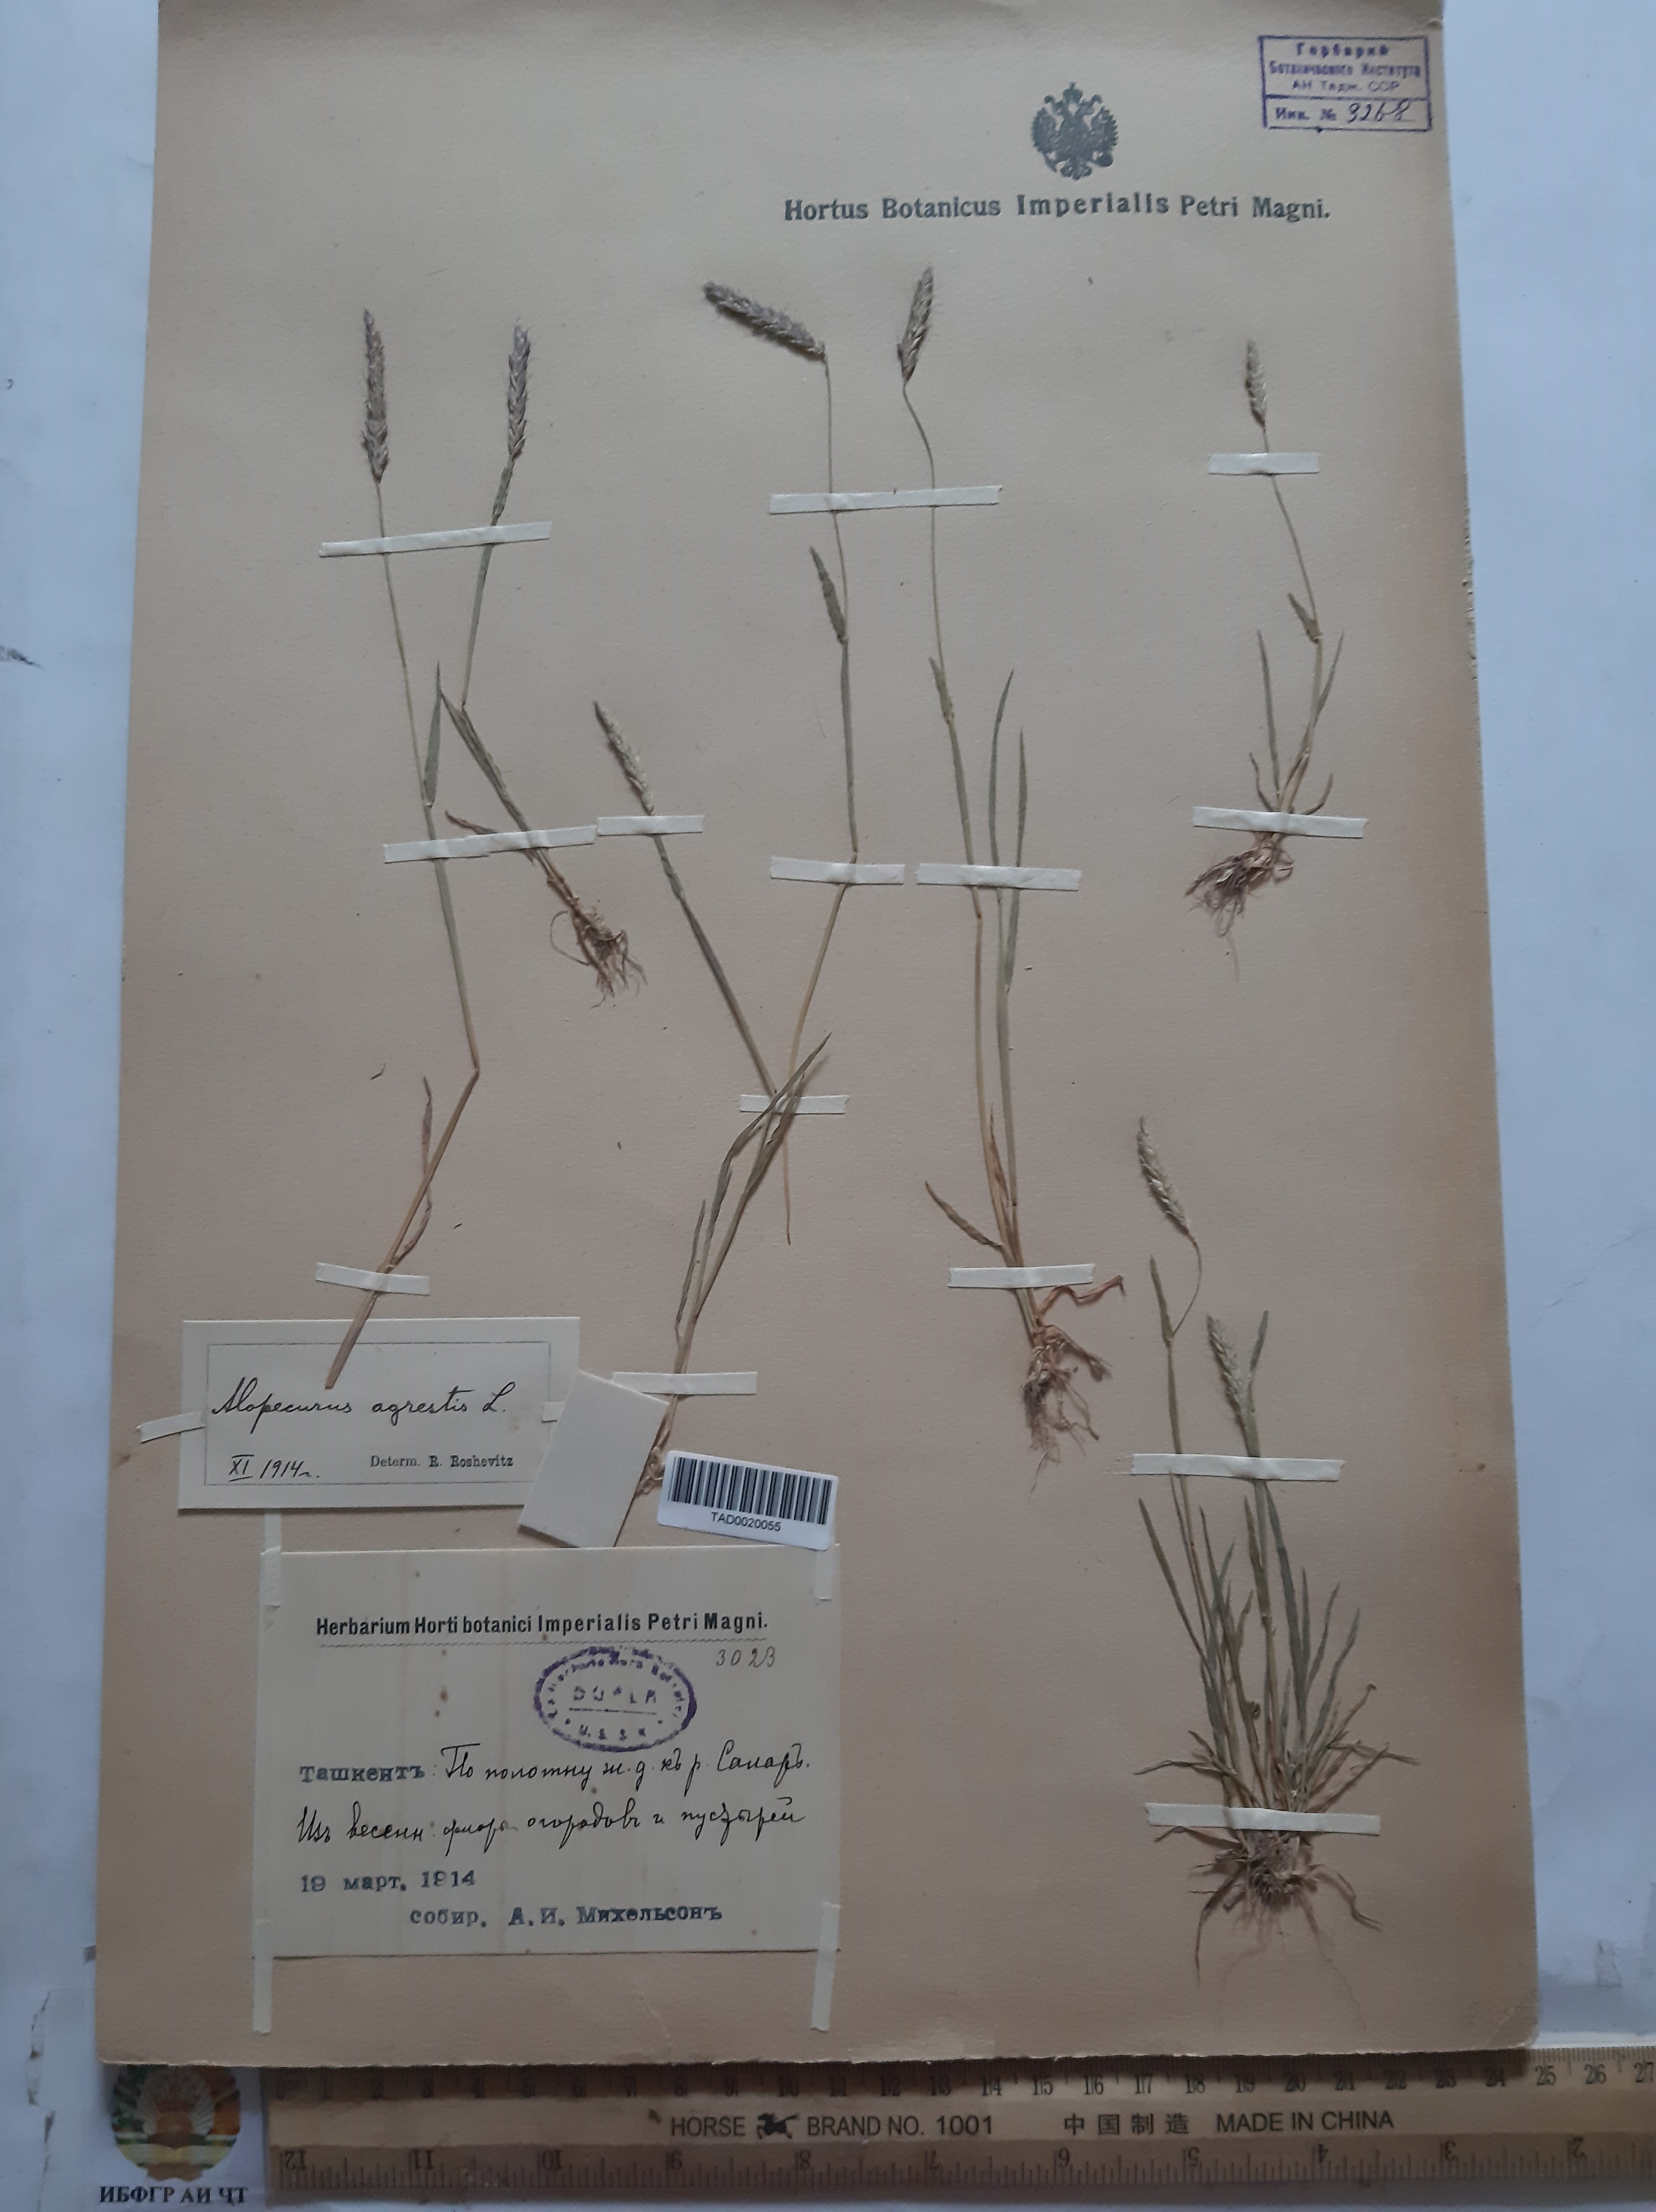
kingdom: Plantae
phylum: Tracheophyta
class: Liliopsida
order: Poales
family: Poaceae
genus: Alopecurus
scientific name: Alopecurus myosuroides
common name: Black-grass
